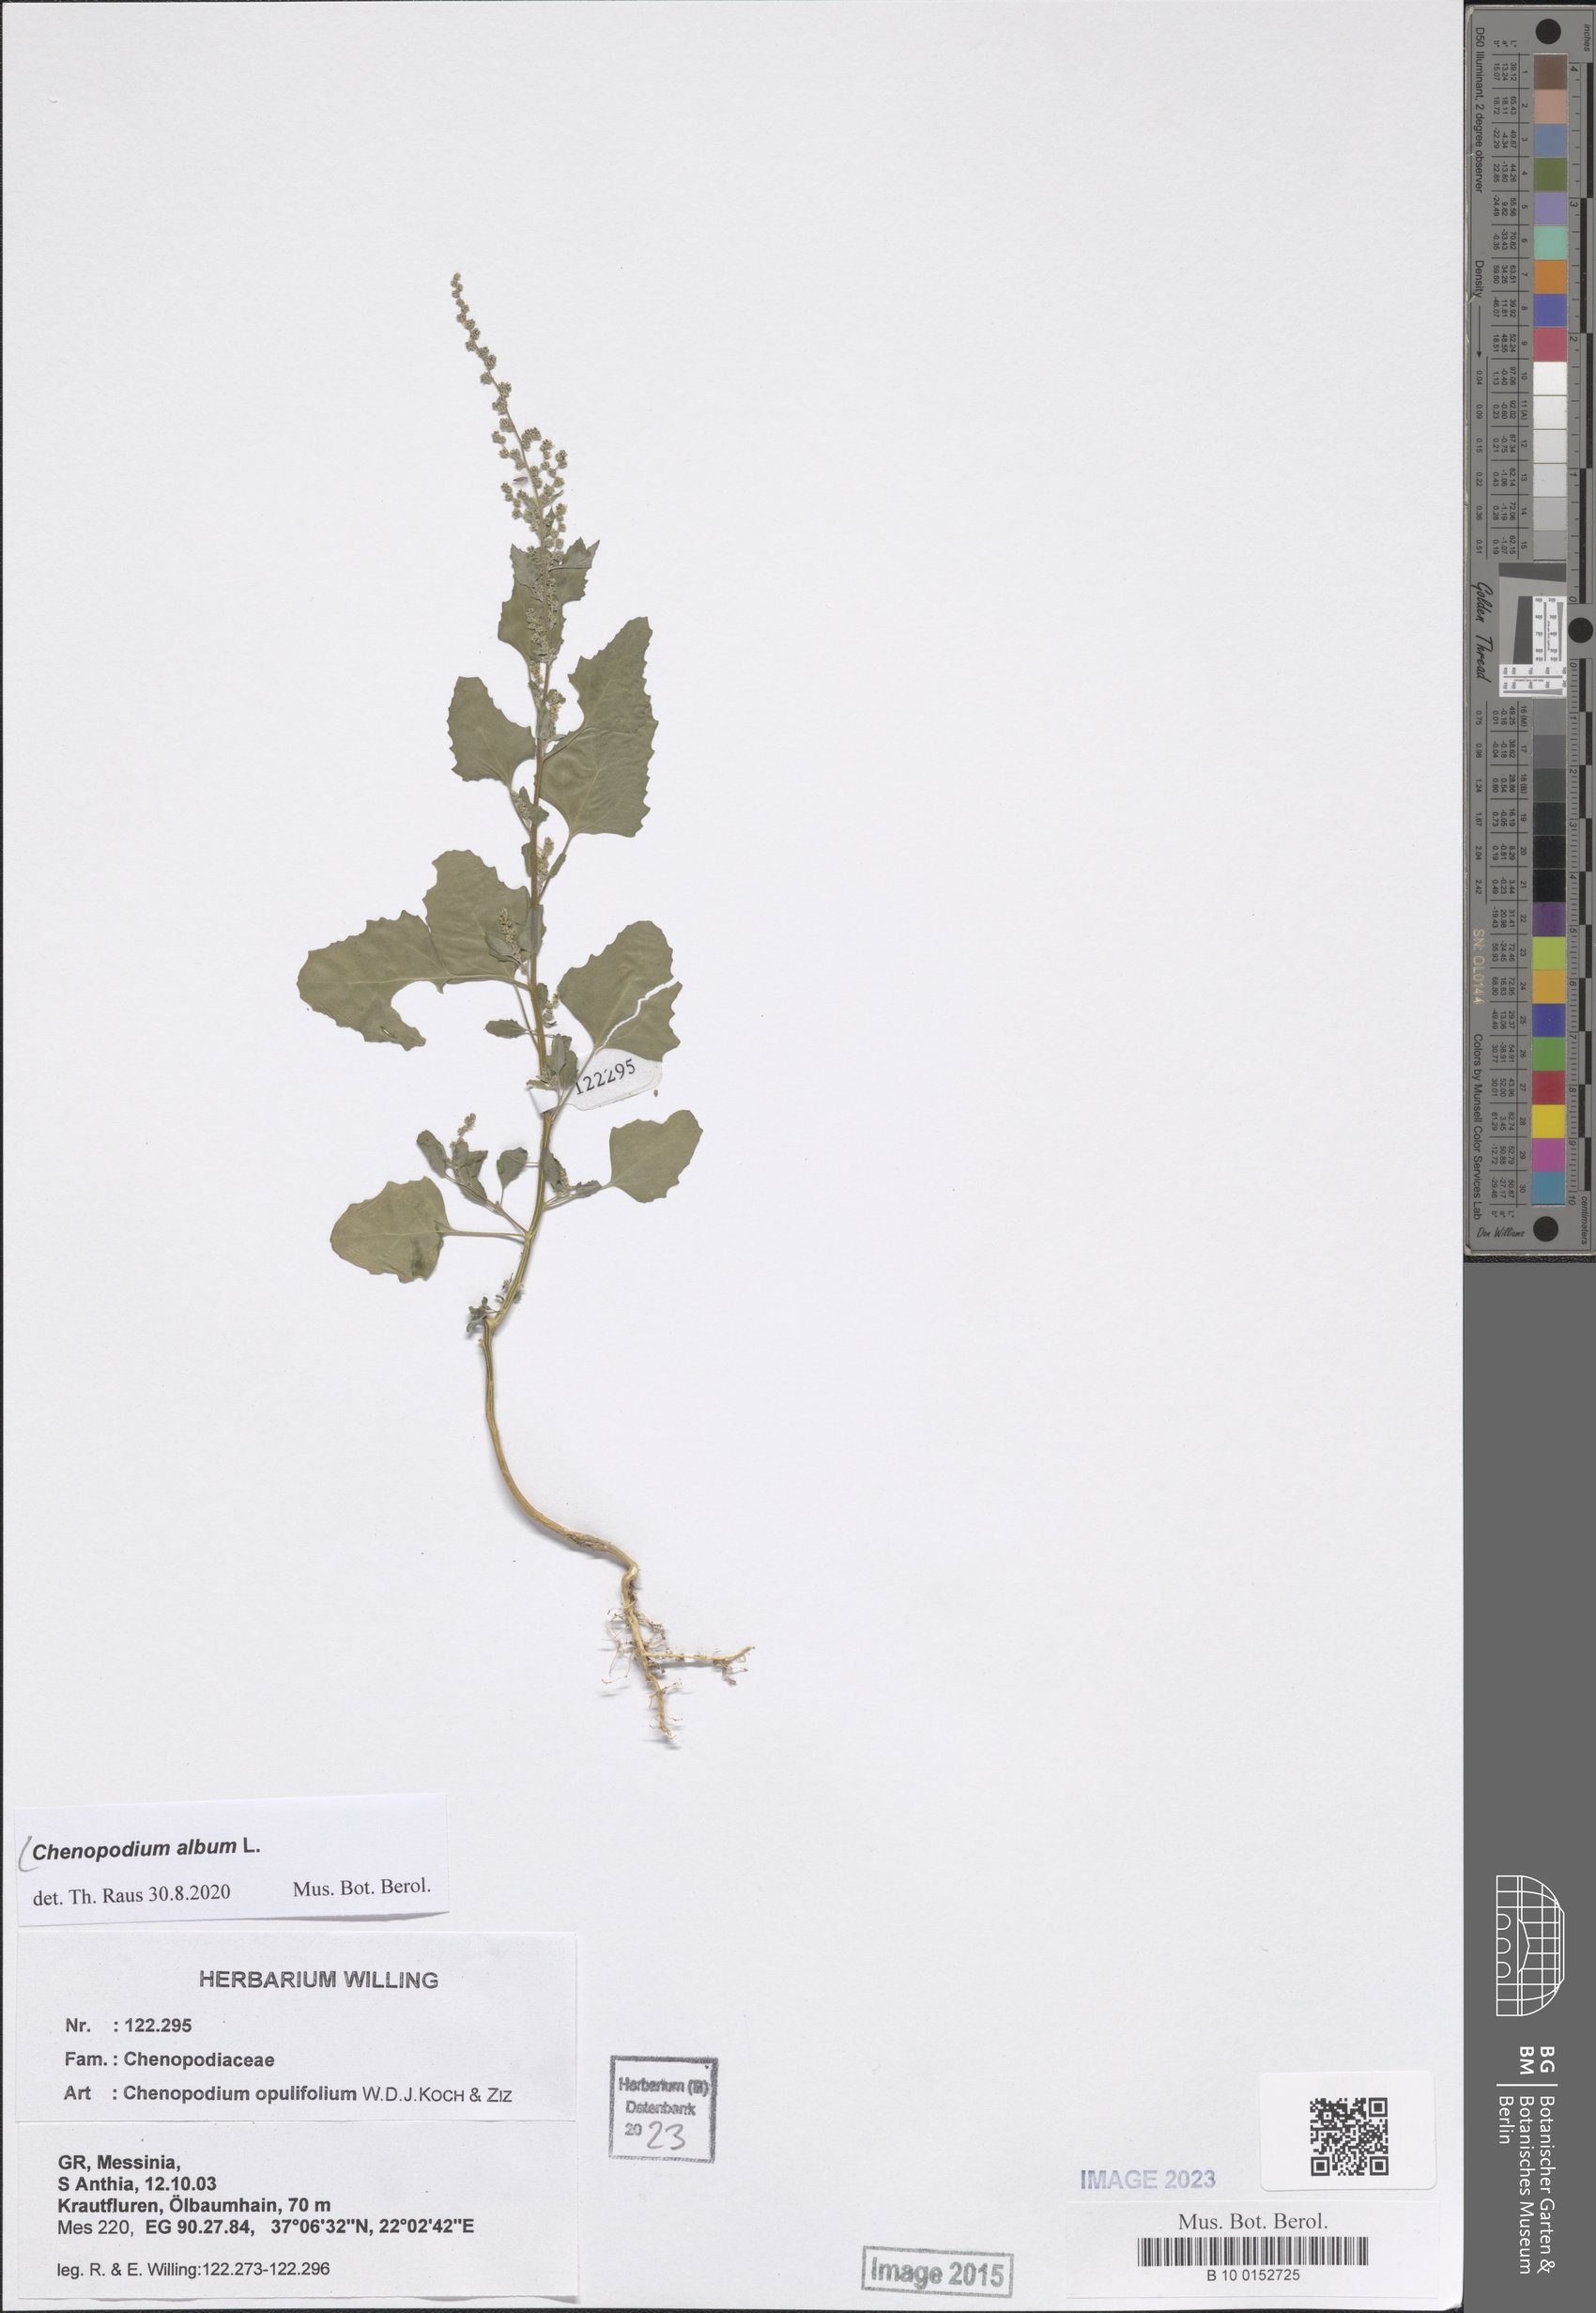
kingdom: Plantae
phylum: Tracheophyta
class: Magnoliopsida
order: Caryophyllales
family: Amaranthaceae
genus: Chenopodium
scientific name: Chenopodium album
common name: Fat-hen
